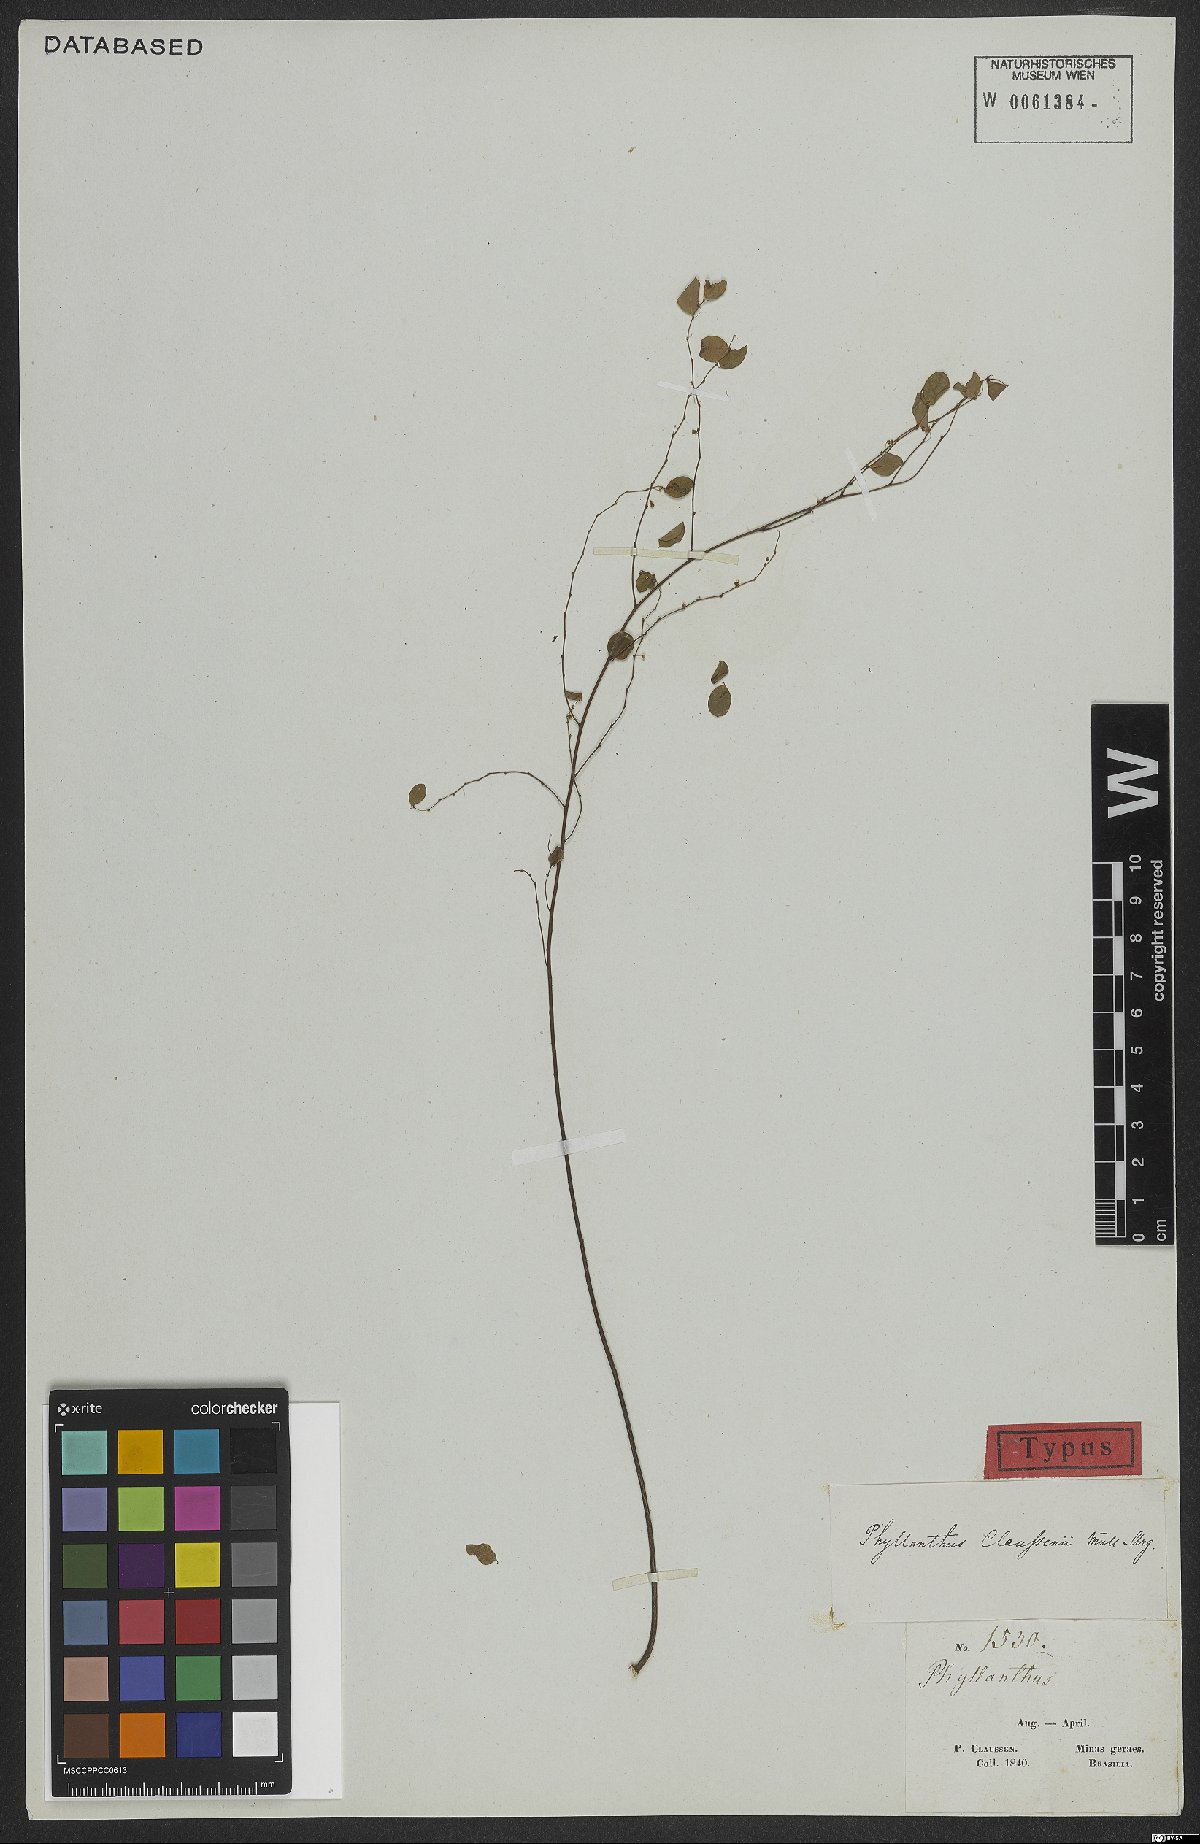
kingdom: Plantae
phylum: Tracheophyta
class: Magnoliopsida
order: Malpighiales
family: Phyllanthaceae
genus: Phyllanthus
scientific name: Phyllanthus subemarginatus
